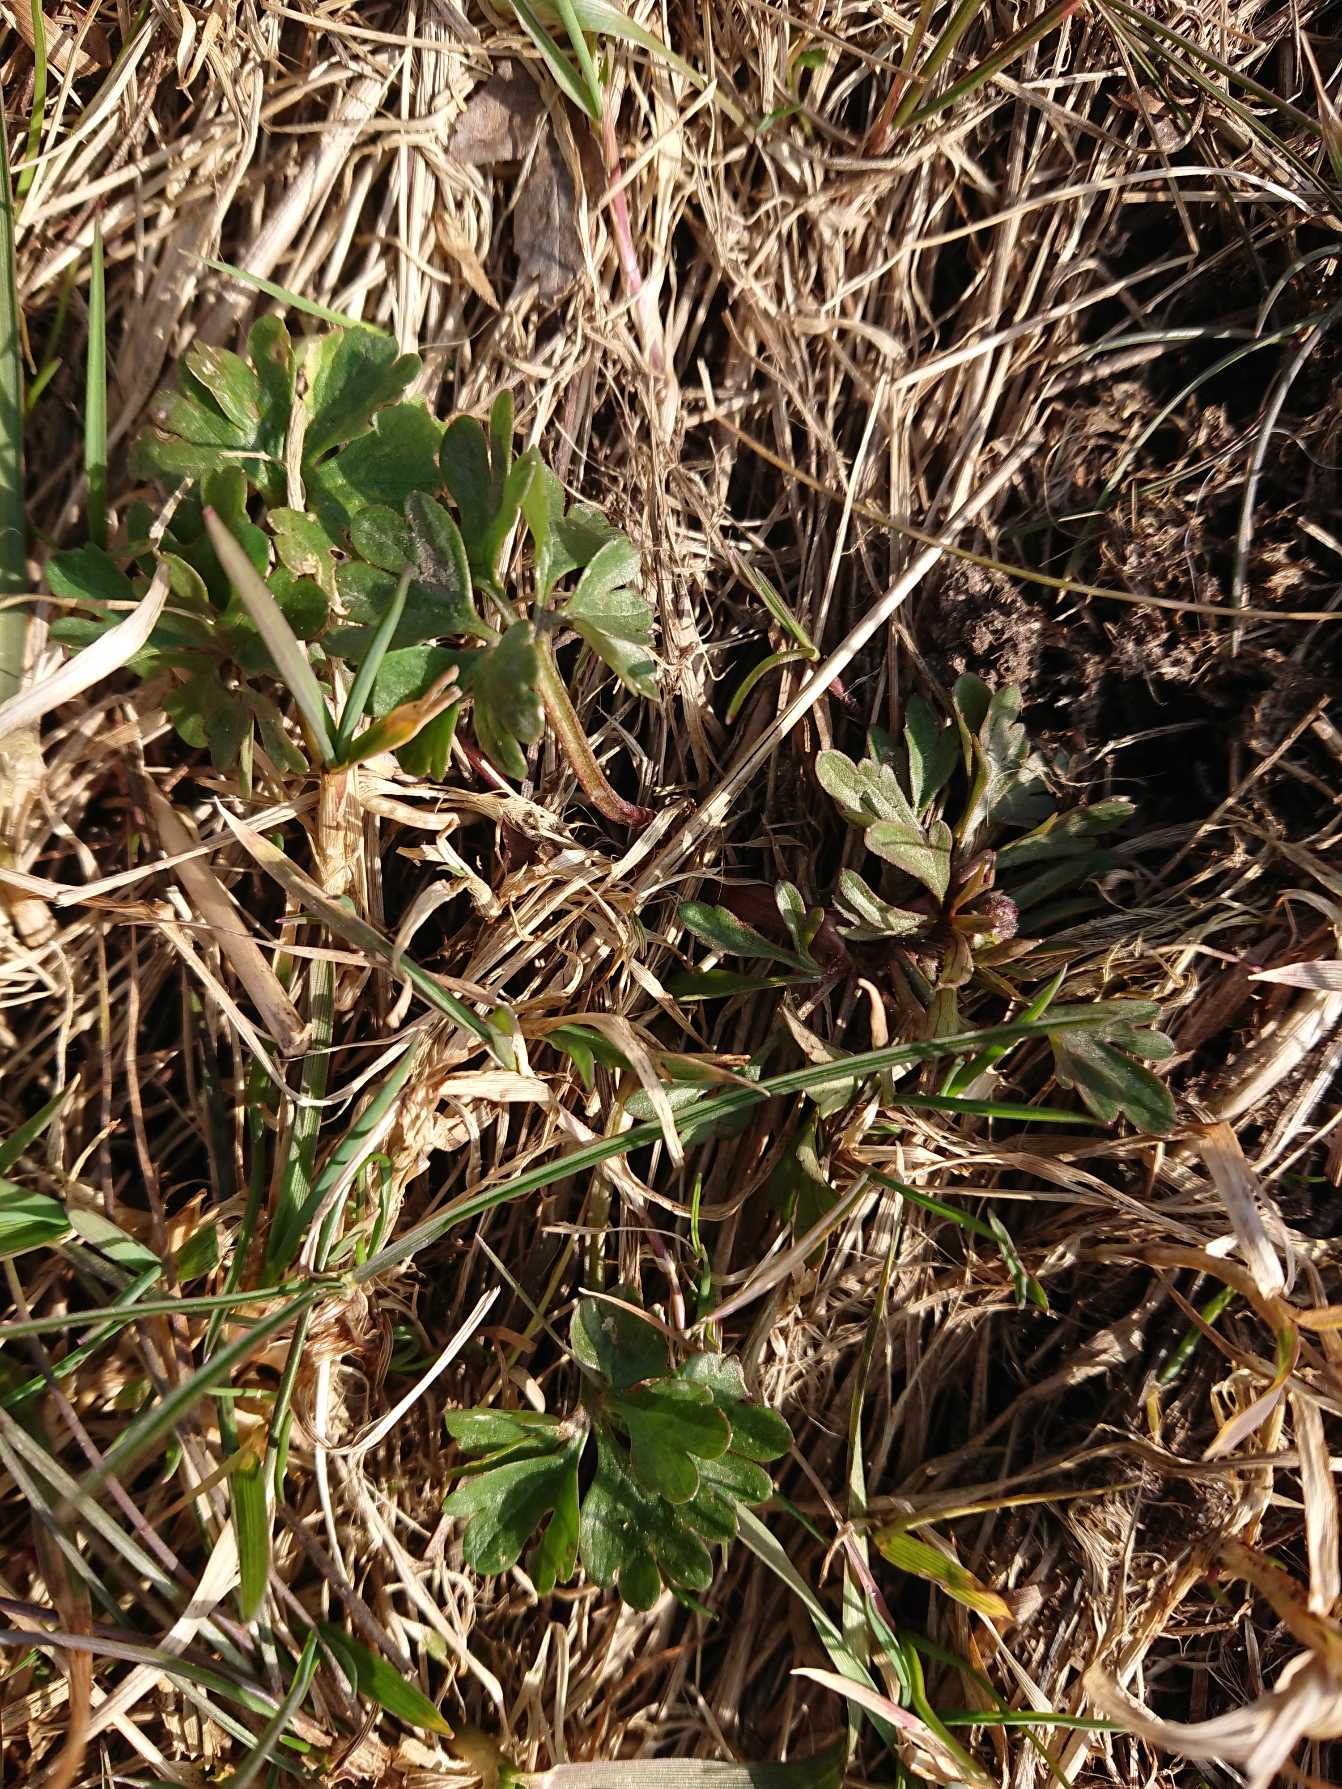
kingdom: Plantae
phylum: Tracheophyta
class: Magnoliopsida
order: Ranunculales
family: Ranunculaceae
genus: Ranunculus
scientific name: Ranunculus auricomus
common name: Nyrebladet ranunkel
